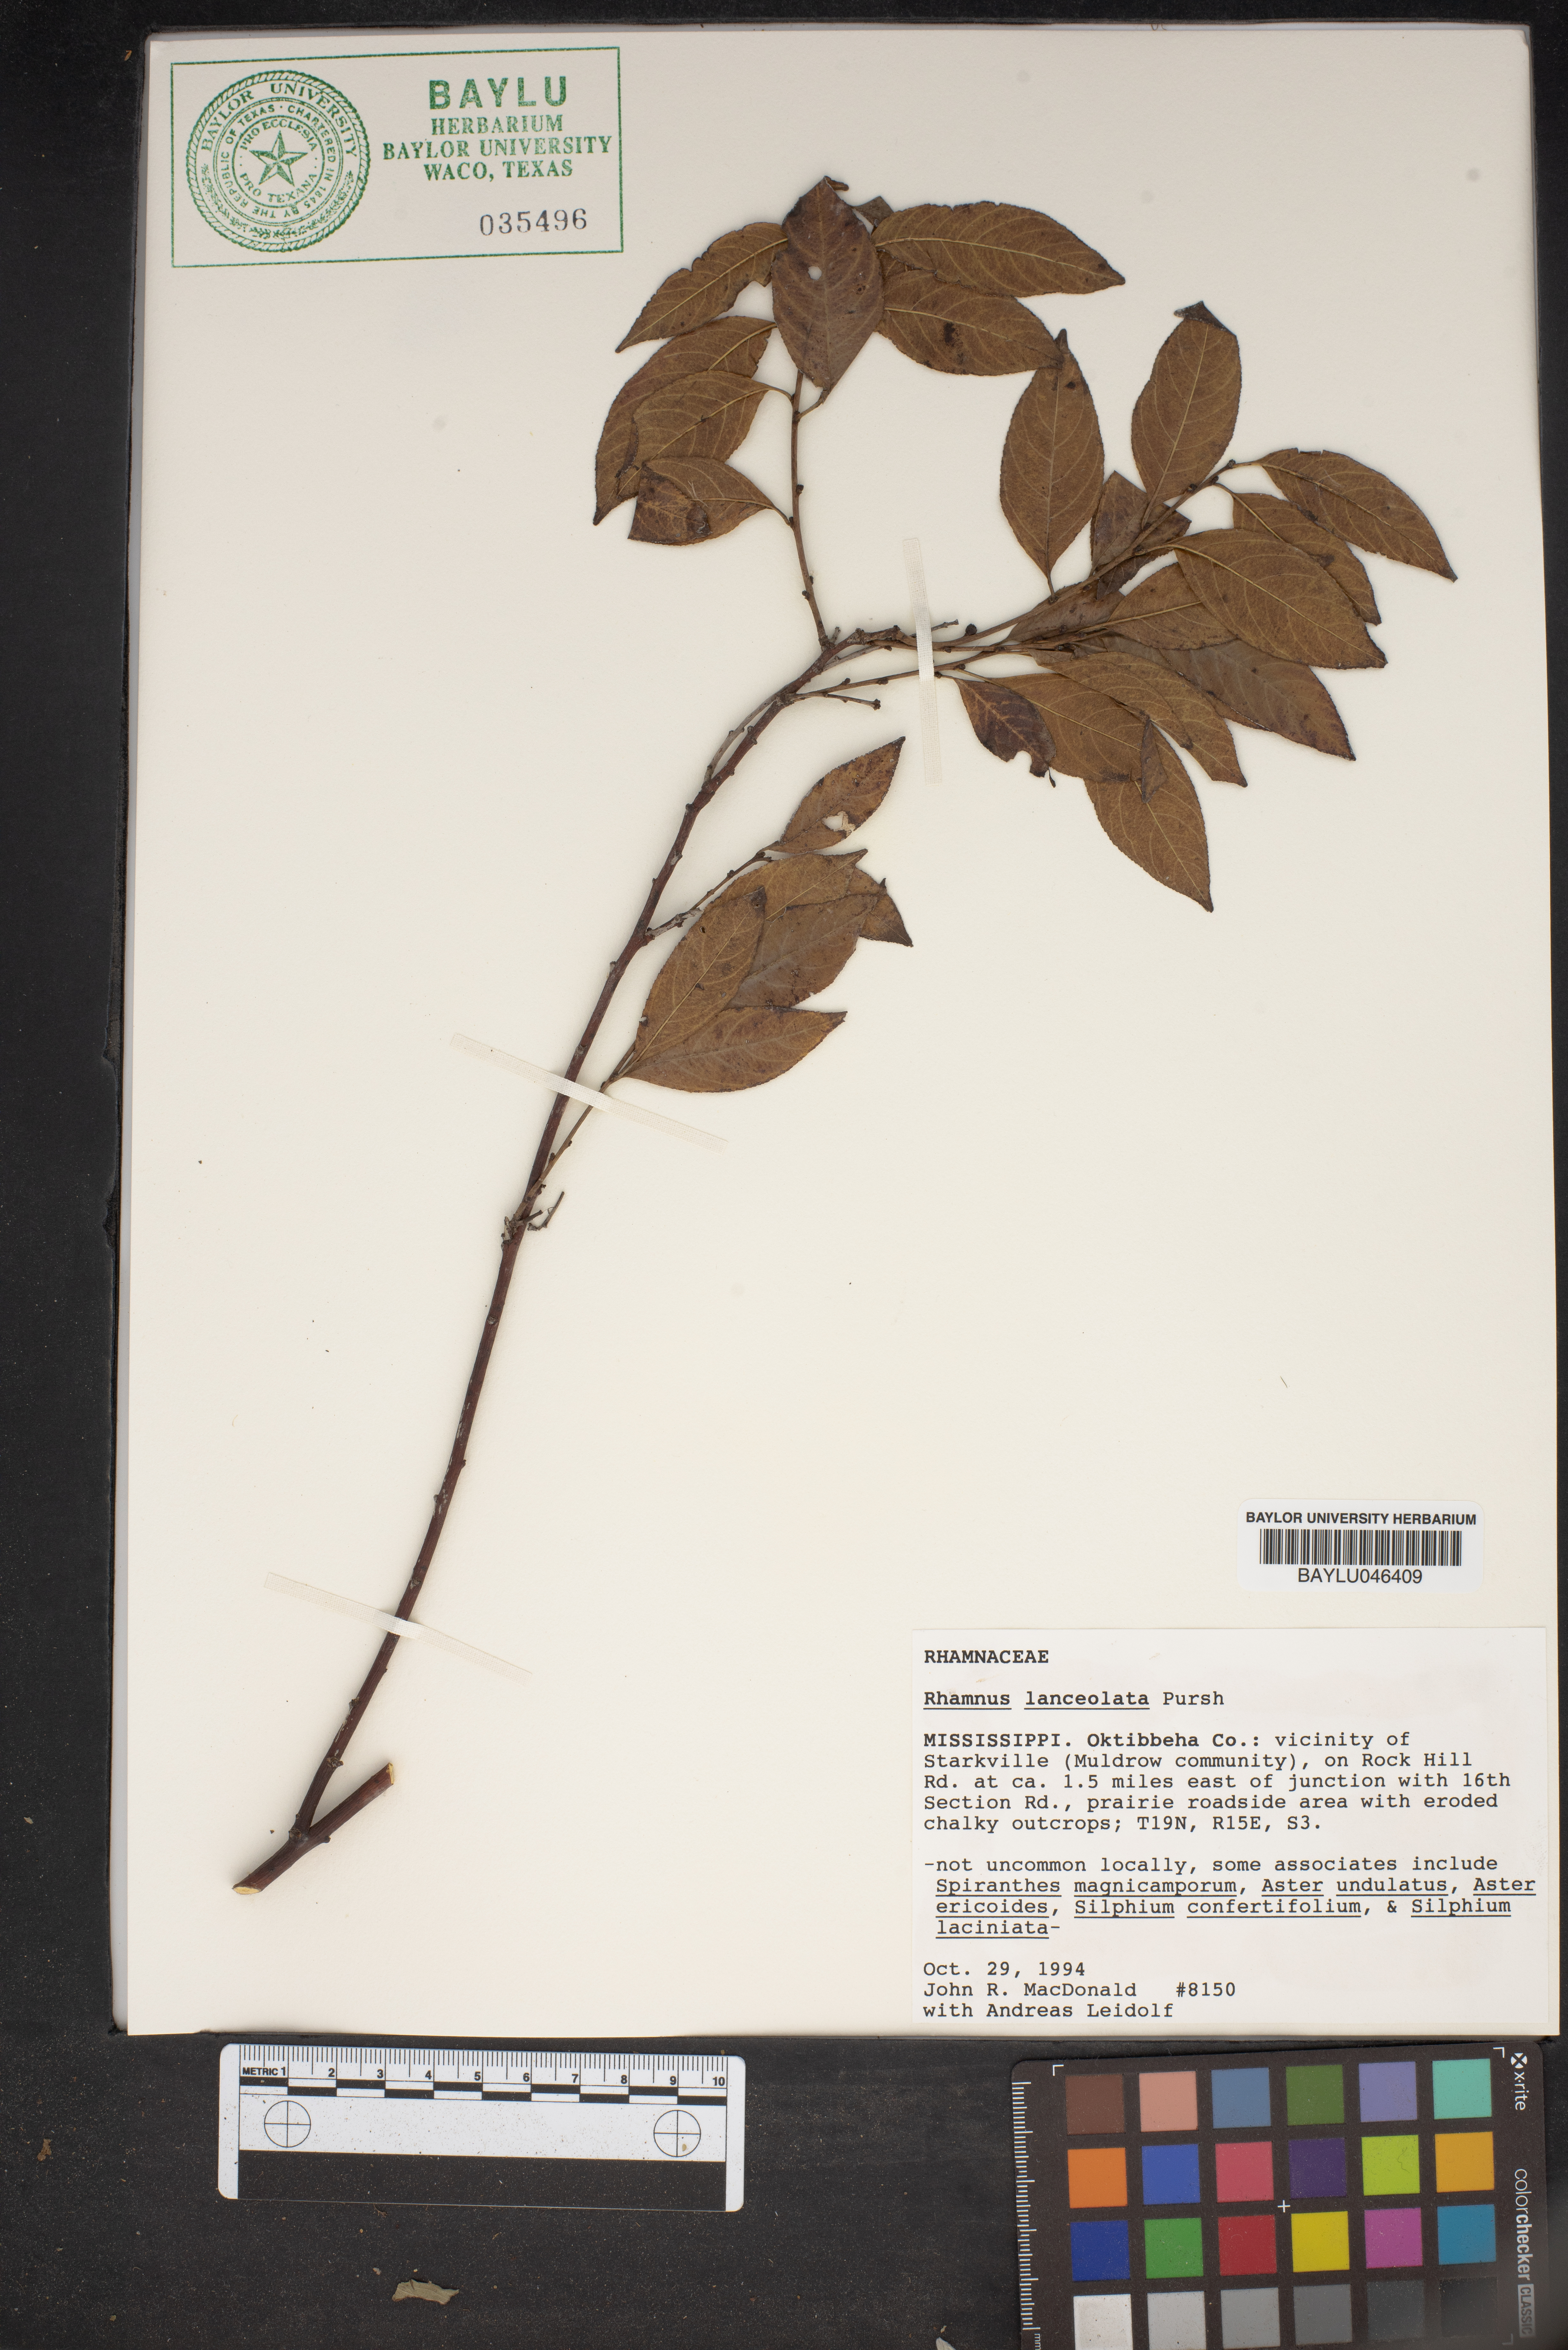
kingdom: Plantae
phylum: Tracheophyta
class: Magnoliopsida
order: Rosales
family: Rhamnaceae
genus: Endotropis
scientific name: Endotropis lanceolata
